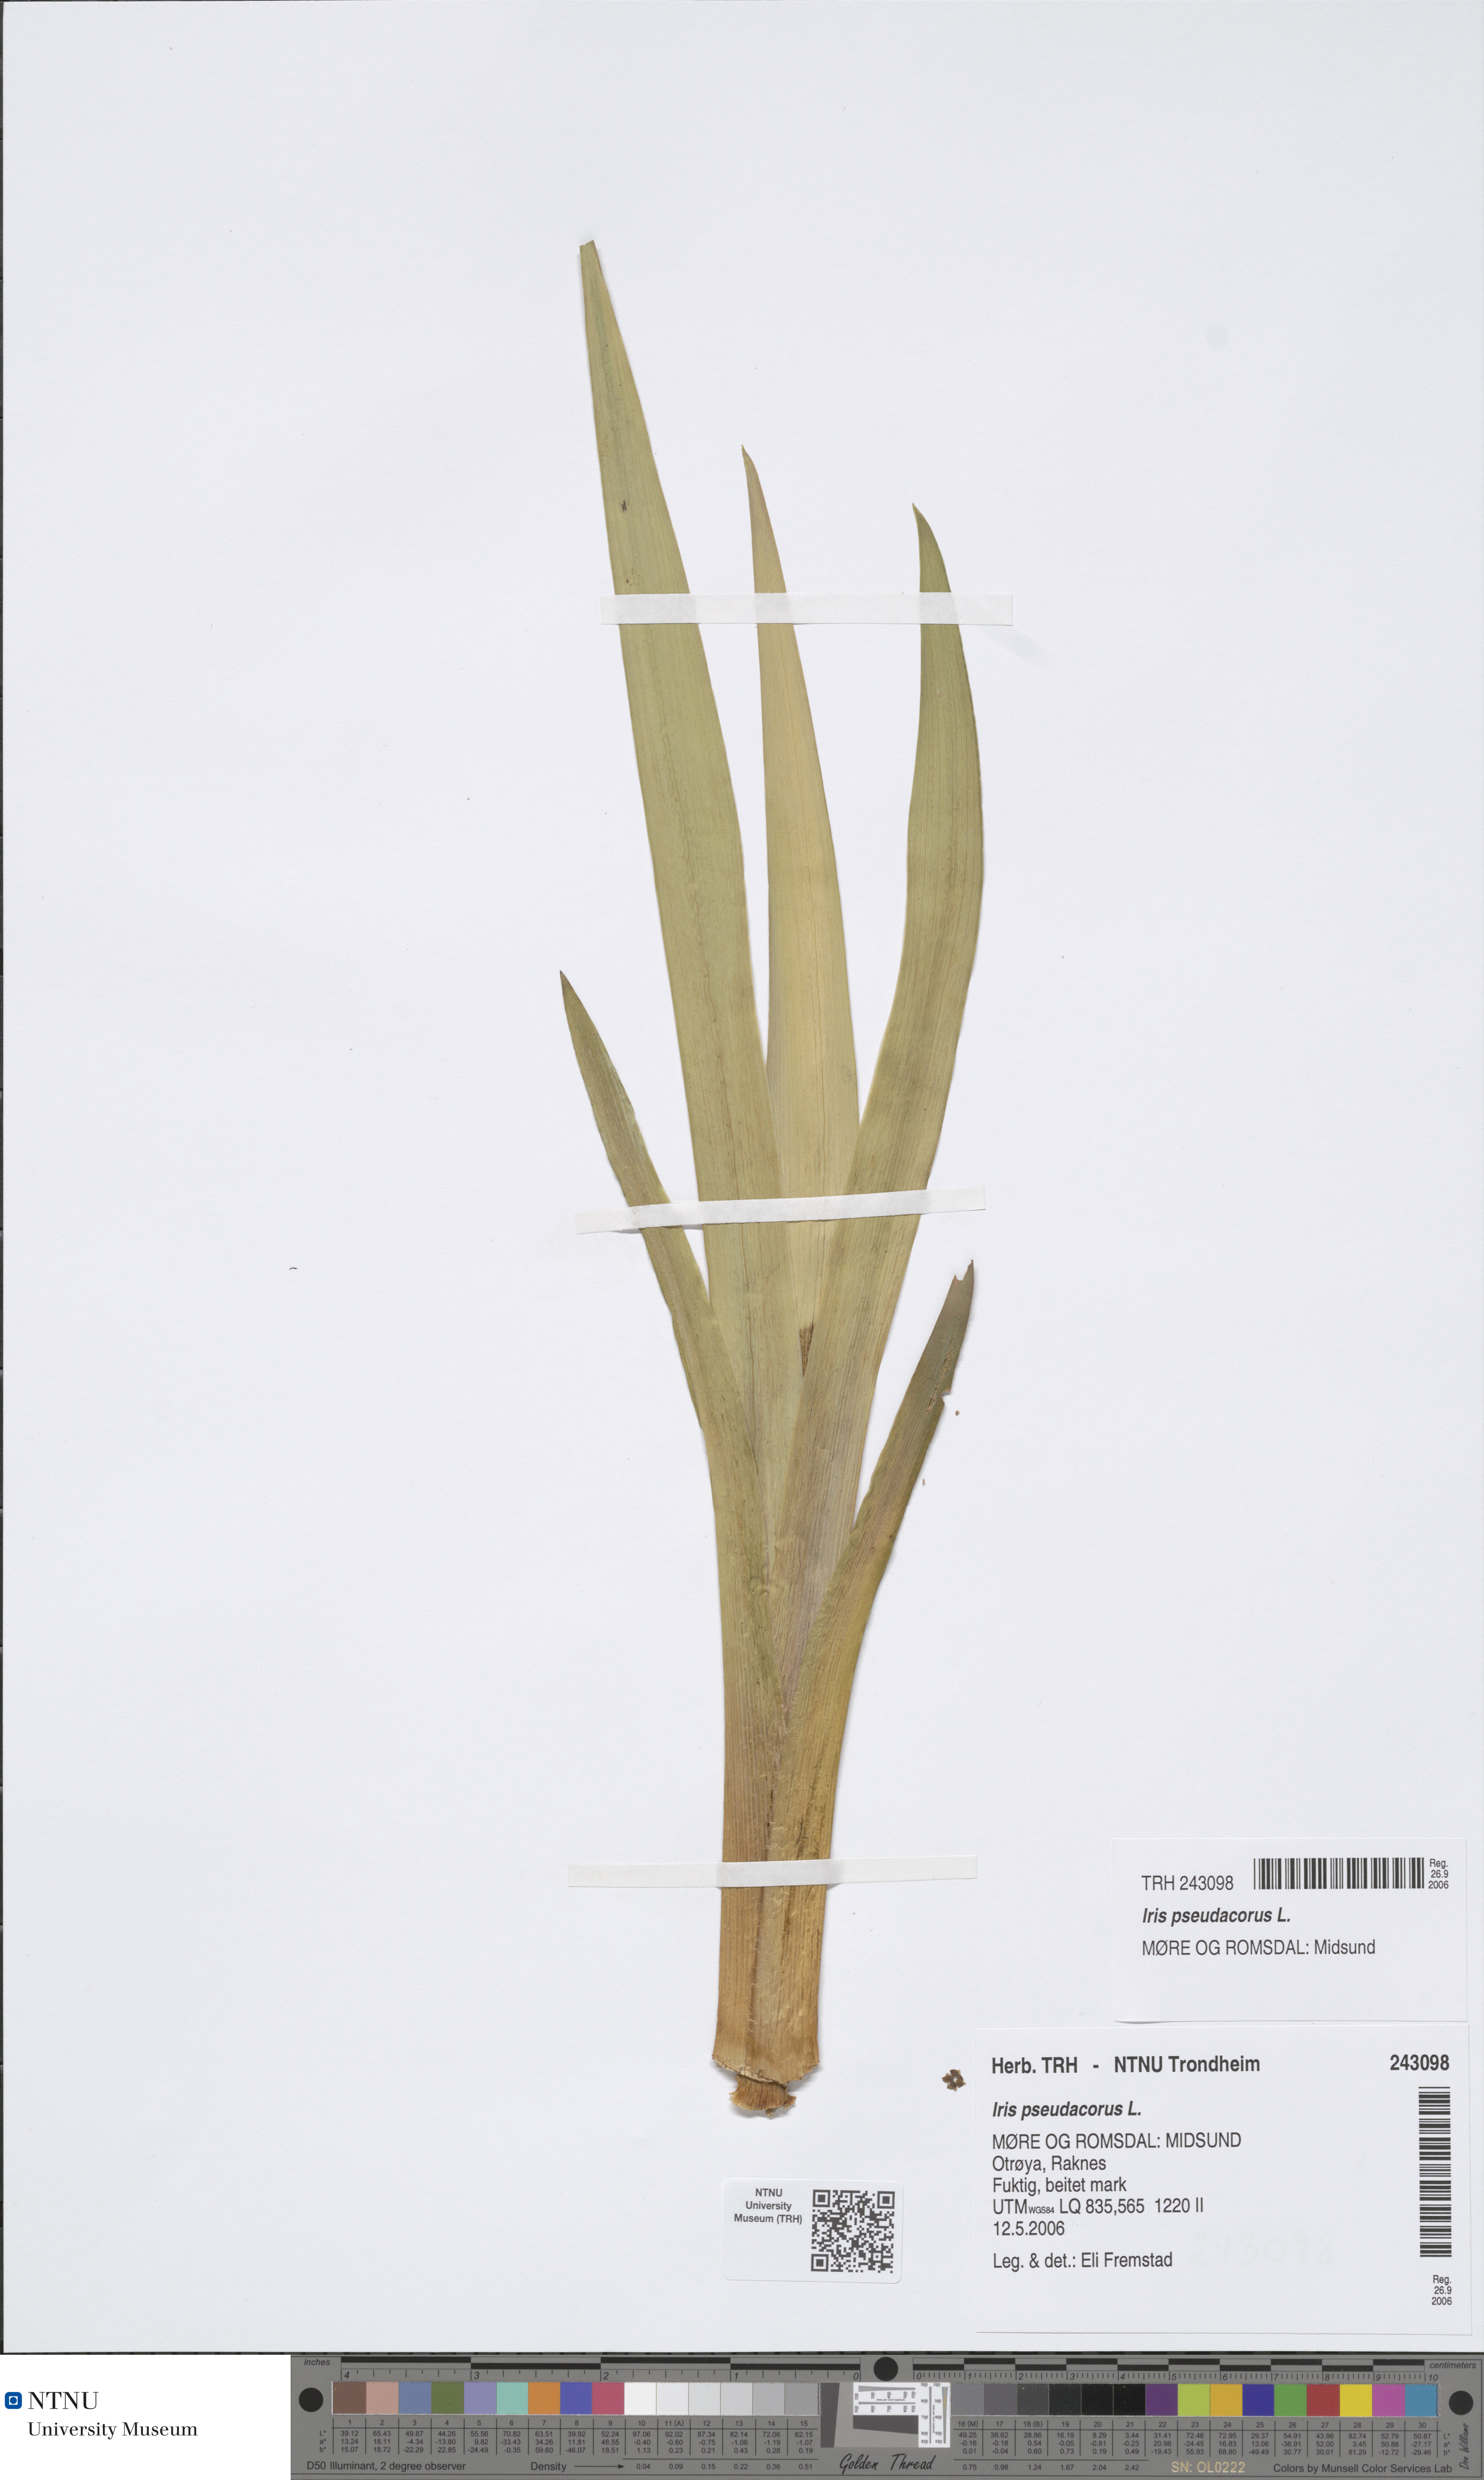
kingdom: Plantae
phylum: Tracheophyta
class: Liliopsida
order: Asparagales
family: Iridaceae
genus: Iris
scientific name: Iris pseudacorus
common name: Yellow flag
